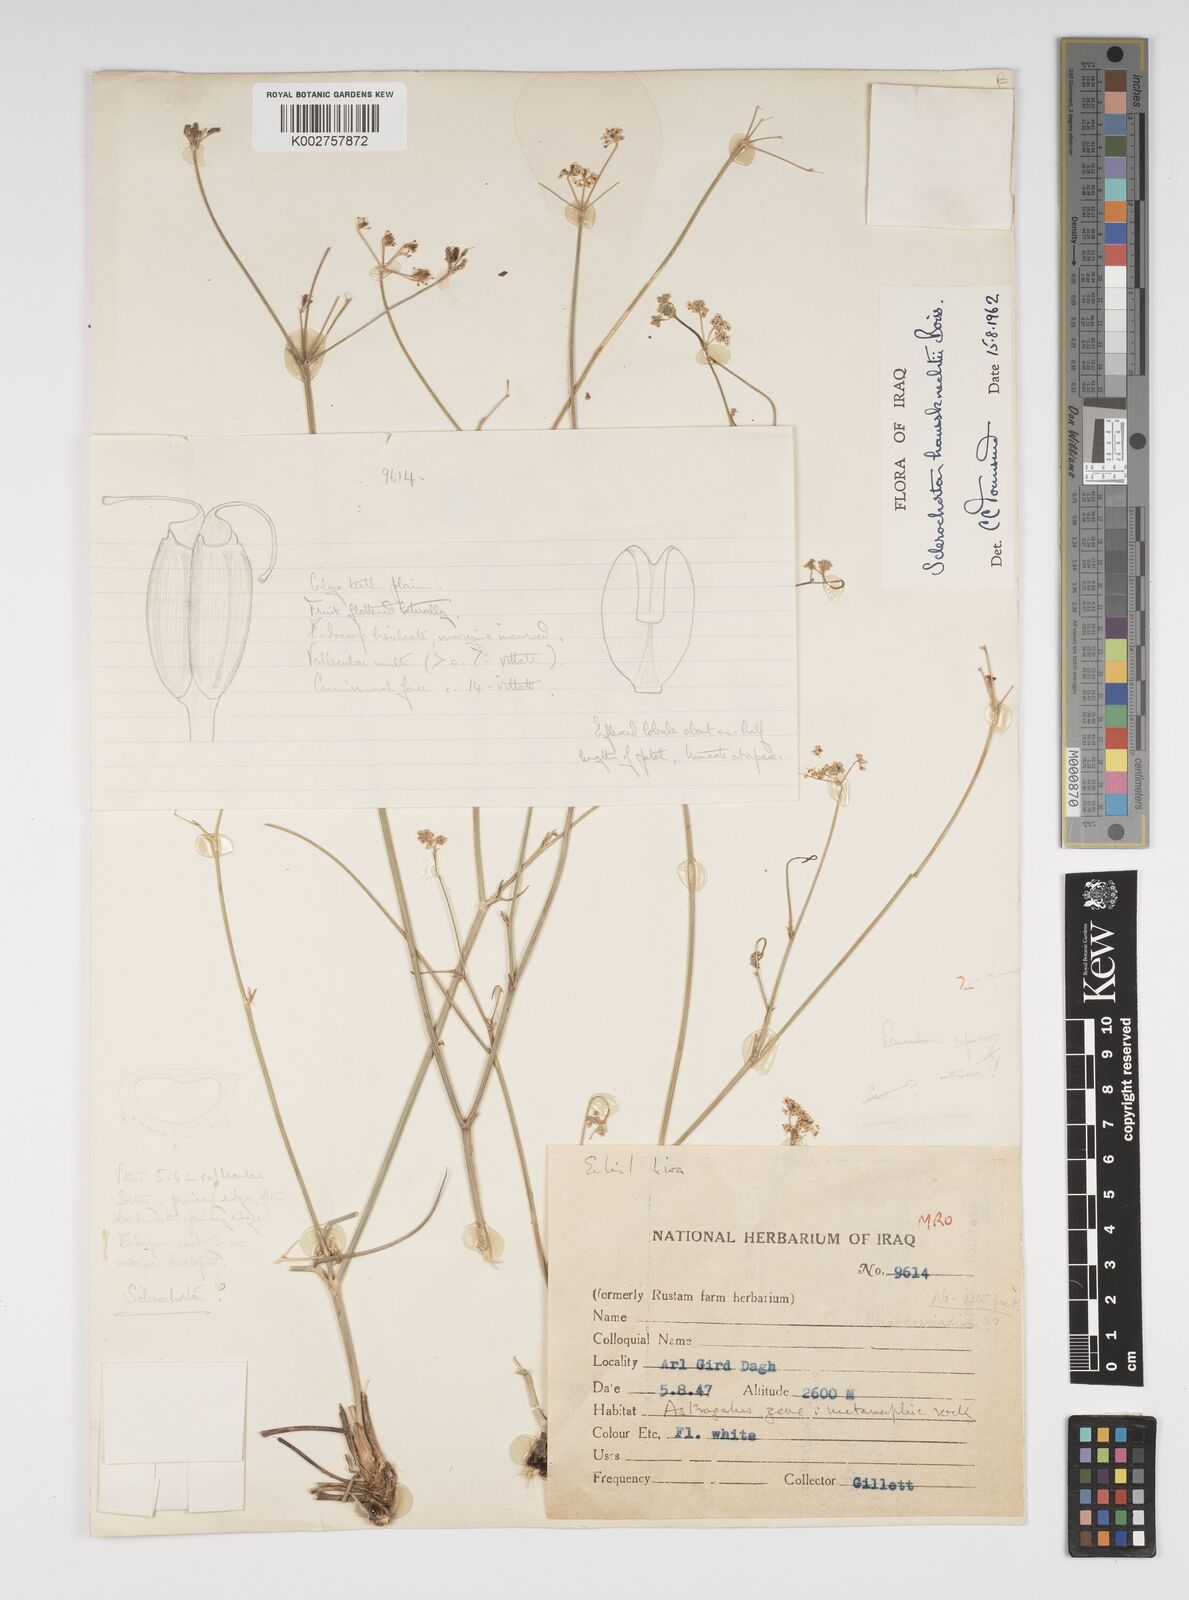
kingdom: Plantae
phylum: Tracheophyta
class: Magnoliopsida
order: Apiales
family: Apiaceae
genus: Sclerochorton
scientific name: Sclerochorton haussknechtii
